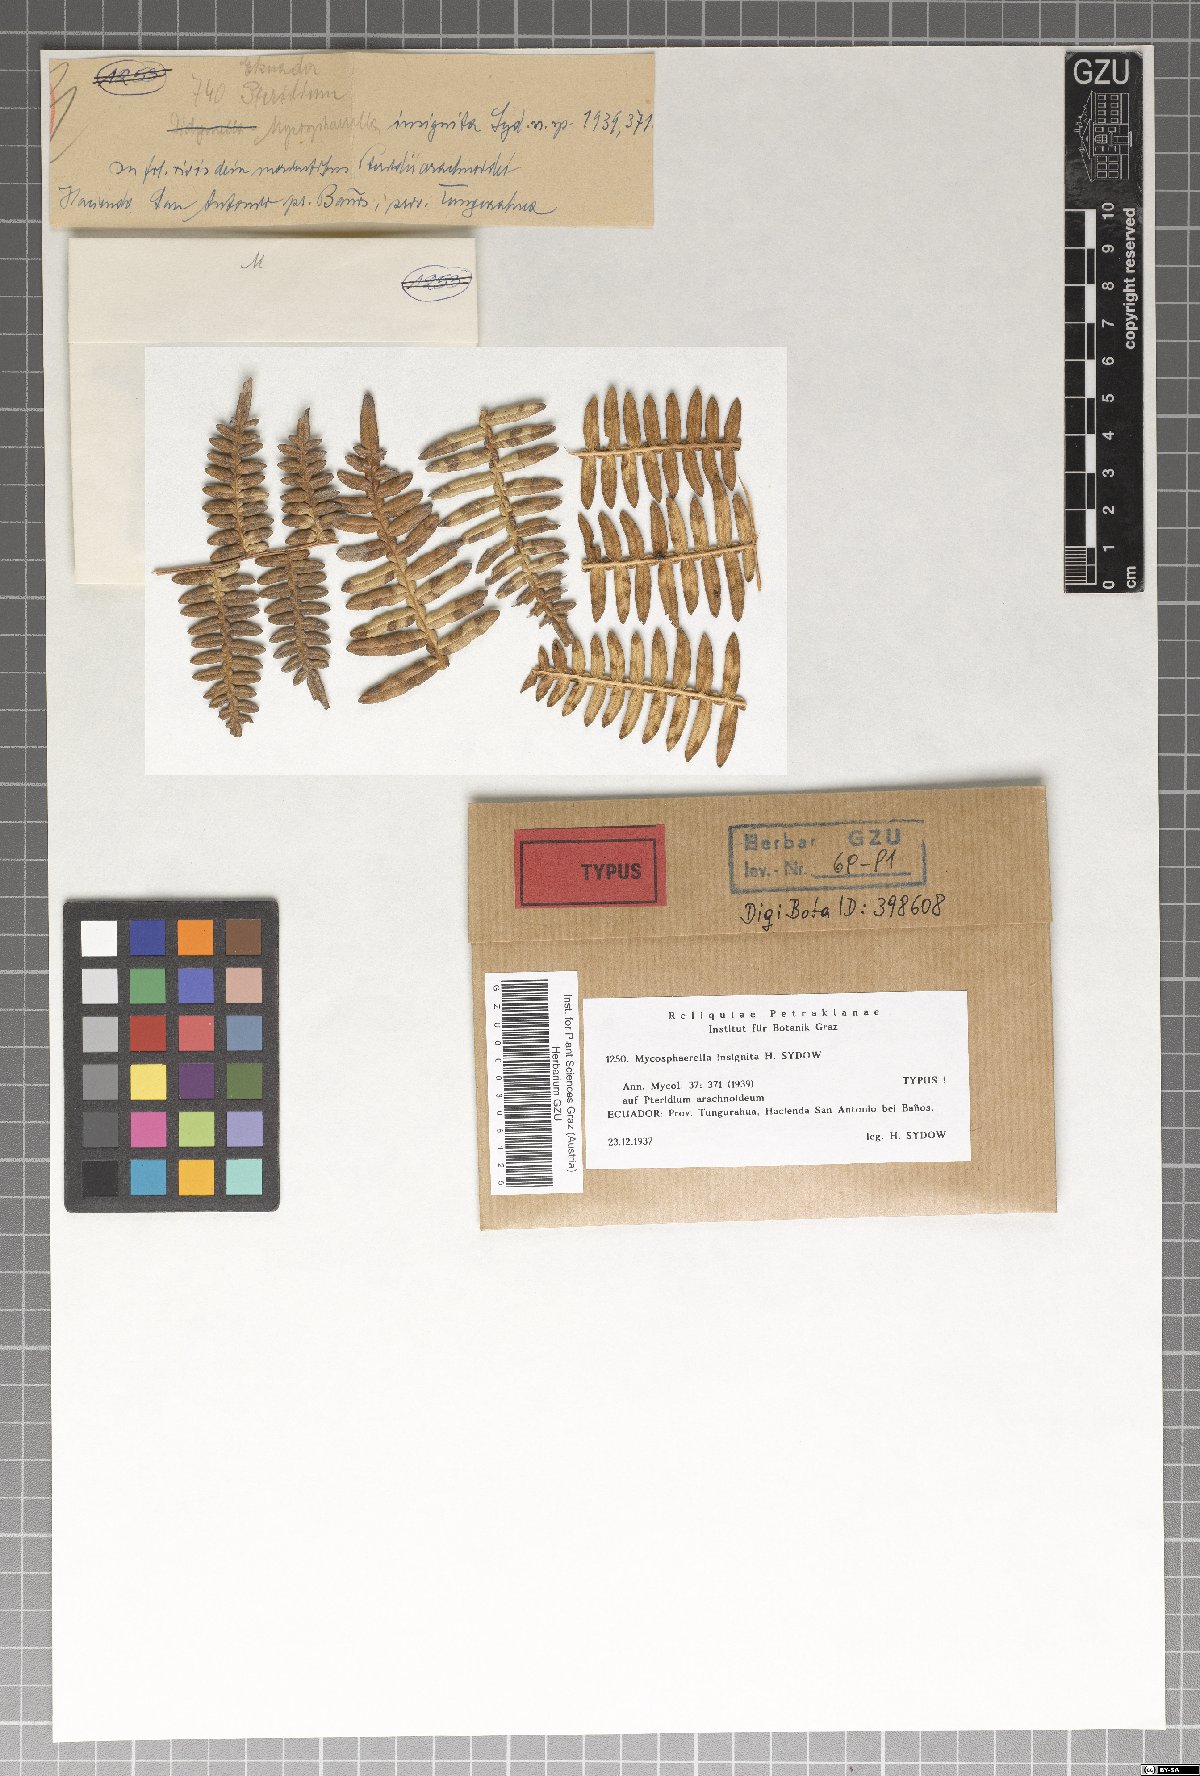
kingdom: Fungi
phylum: Ascomycota
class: Dothideomycetes
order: Mycosphaerellales
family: Mycosphaerellaceae
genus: Mycosphaerella
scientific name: Mycosphaerella insignita
